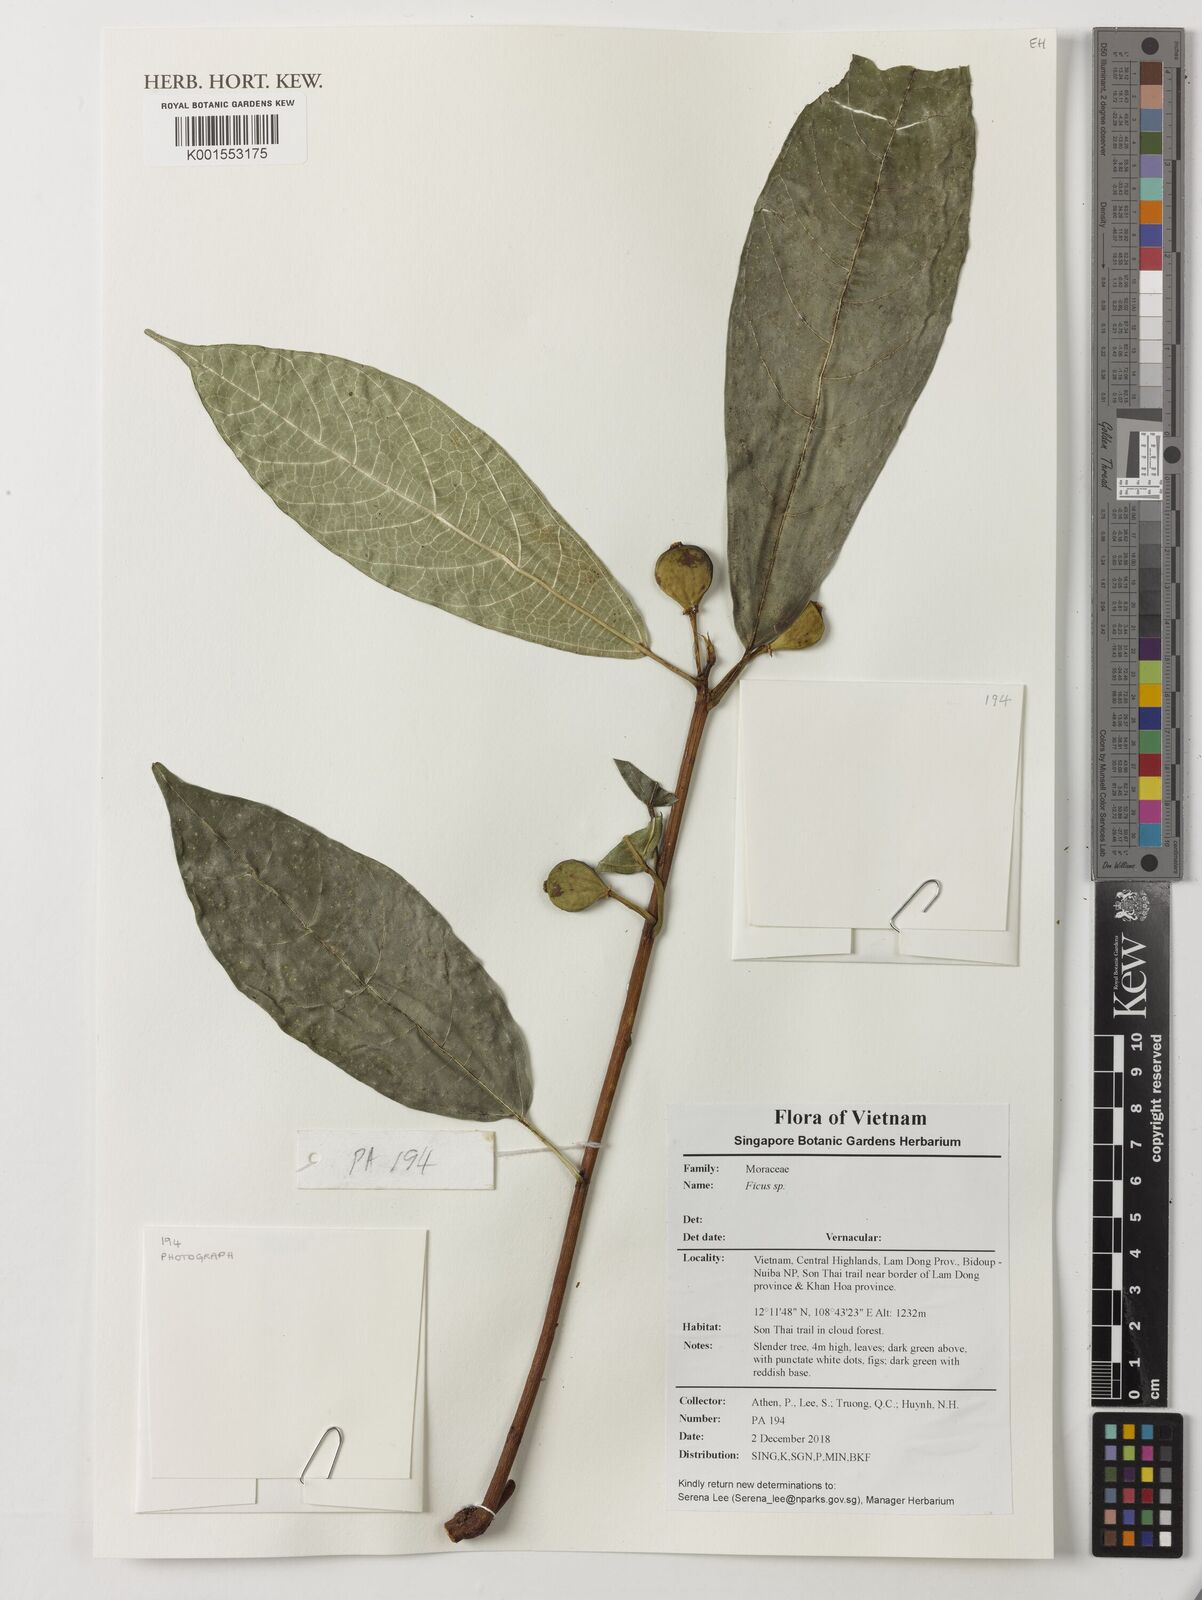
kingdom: Plantae
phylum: Tracheophyta
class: Magnoliopsida
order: Rosales
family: Moraceae
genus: Ficus
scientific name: Ficus
